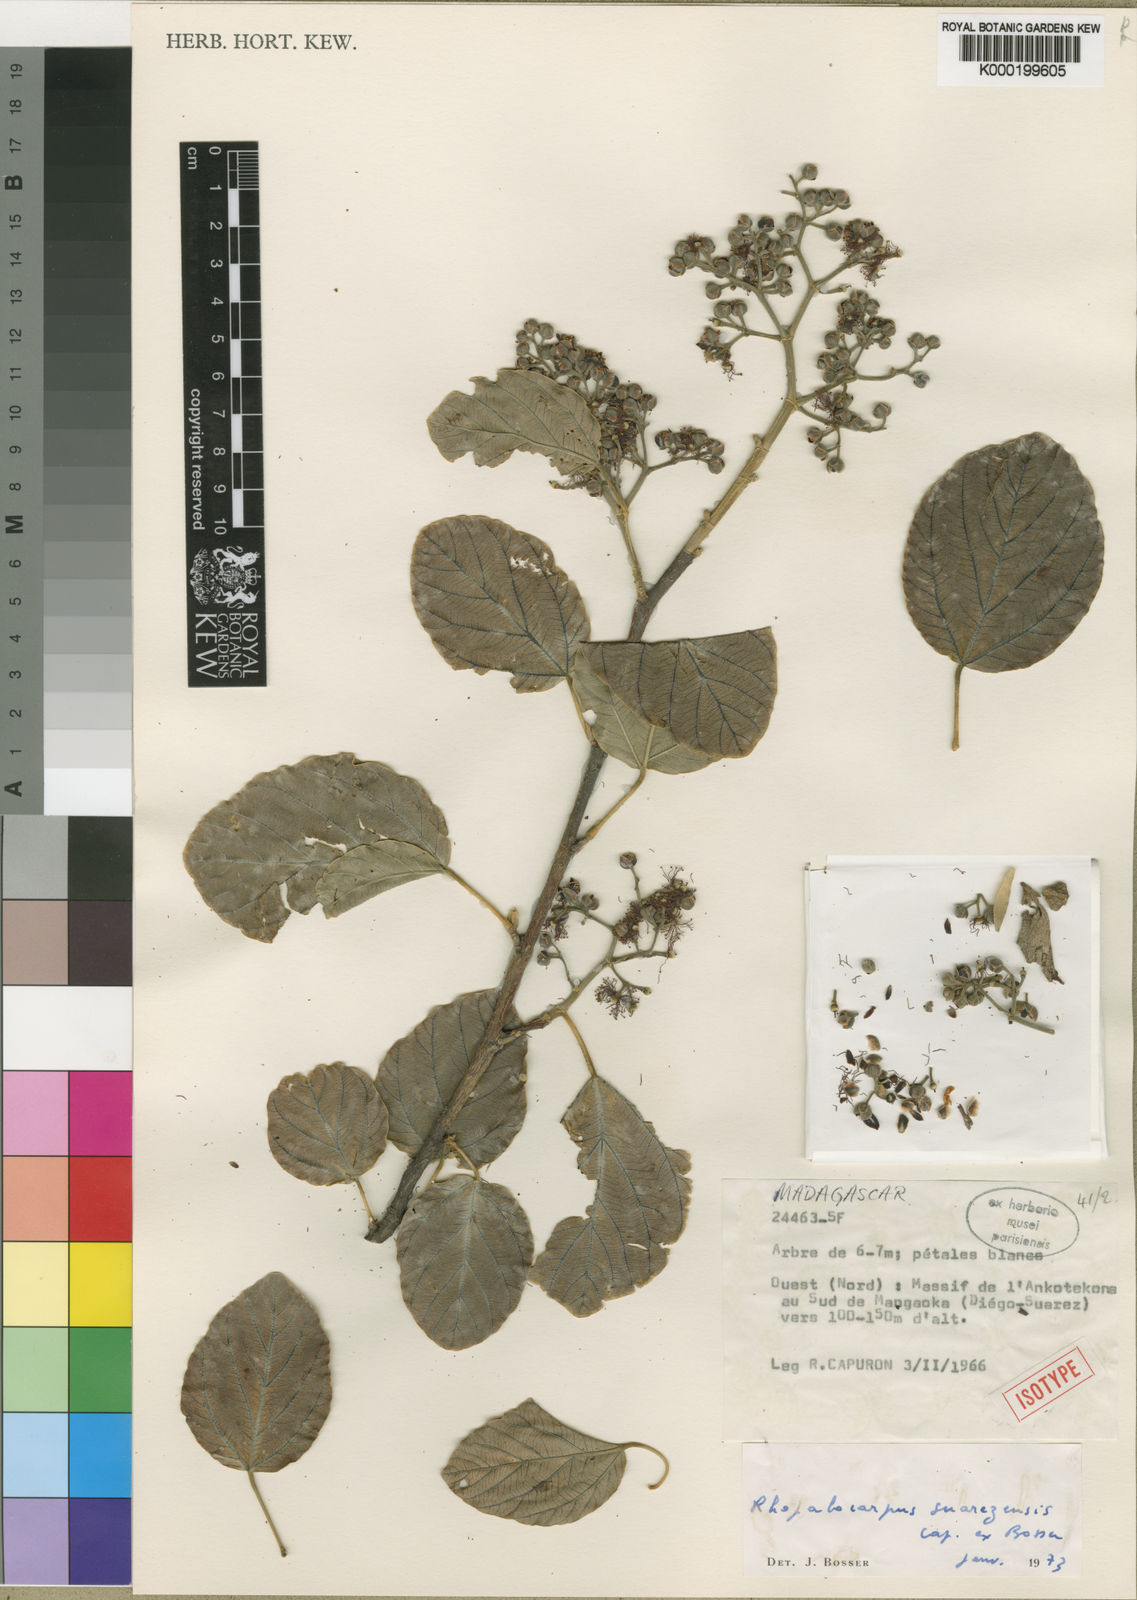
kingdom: Plantae
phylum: Tracheophyta
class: Magnoliopsida
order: Malvales
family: Sphaerosepalaceae
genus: Rhopalocarpus
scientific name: Rhopalocarpus suarezensis
